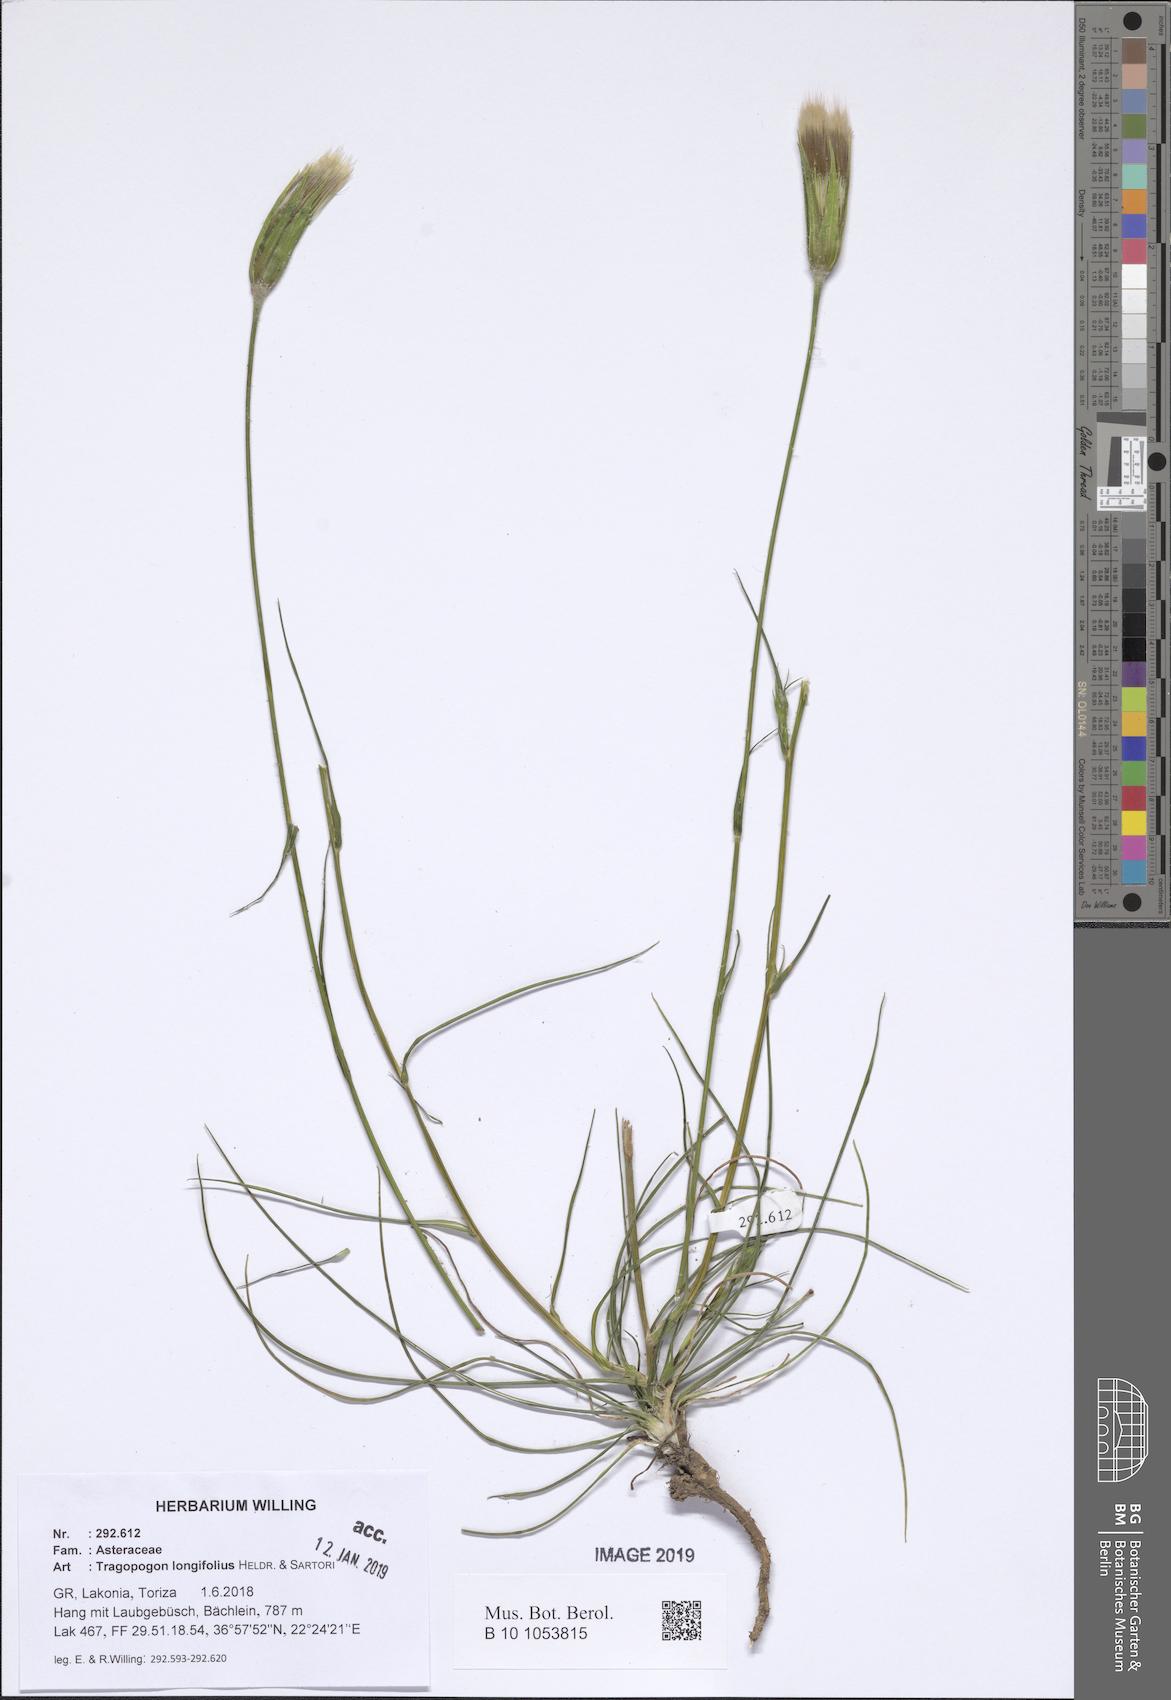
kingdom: Plantae
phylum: Tracheophyta
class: Magnoliopsida
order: Asterales
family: Asteraceae
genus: Tragopogon
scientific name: Tragopogon longifolius
